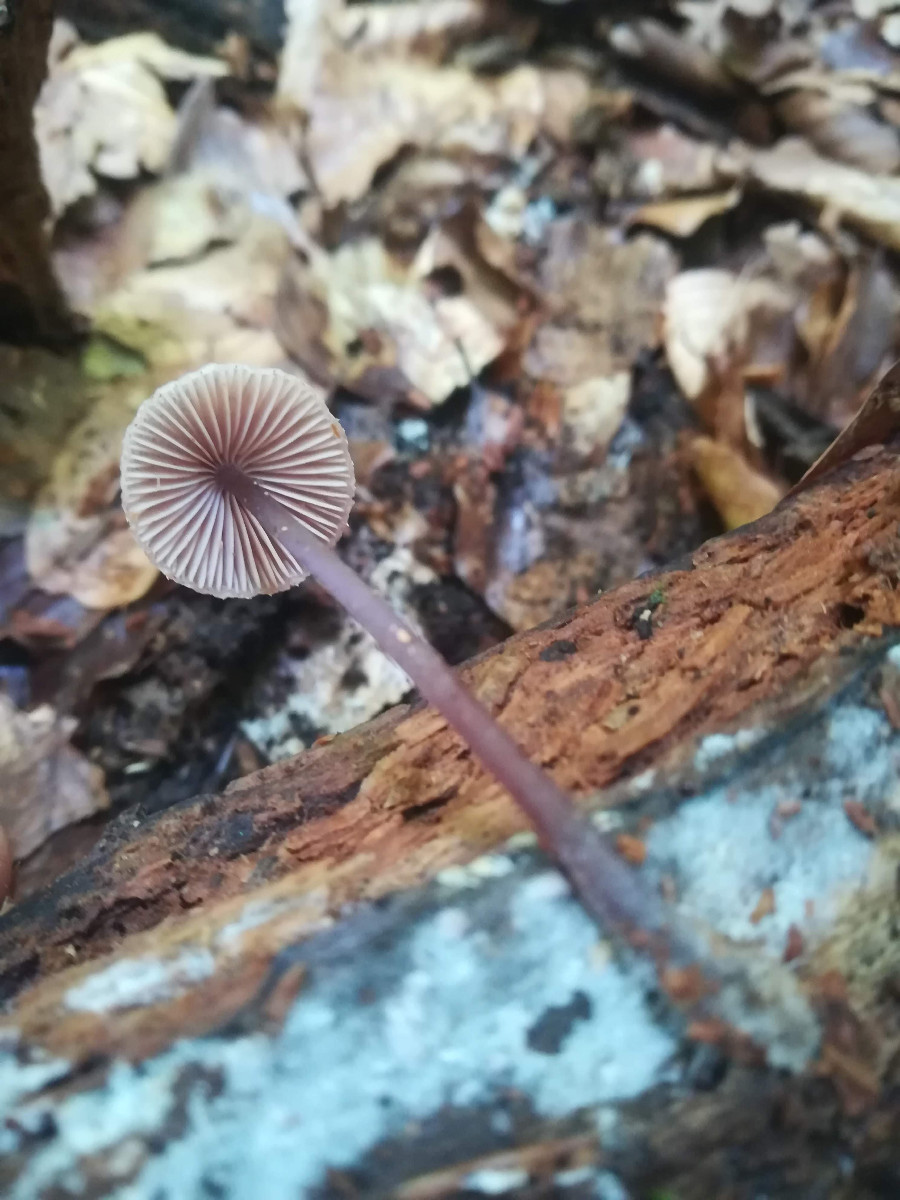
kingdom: Fungi
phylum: Basidiomycota
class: Agaricomycetes
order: Agaricales
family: Mycenaceae
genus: Mycena
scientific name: Mycena haematopus
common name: blødende huesvamp
